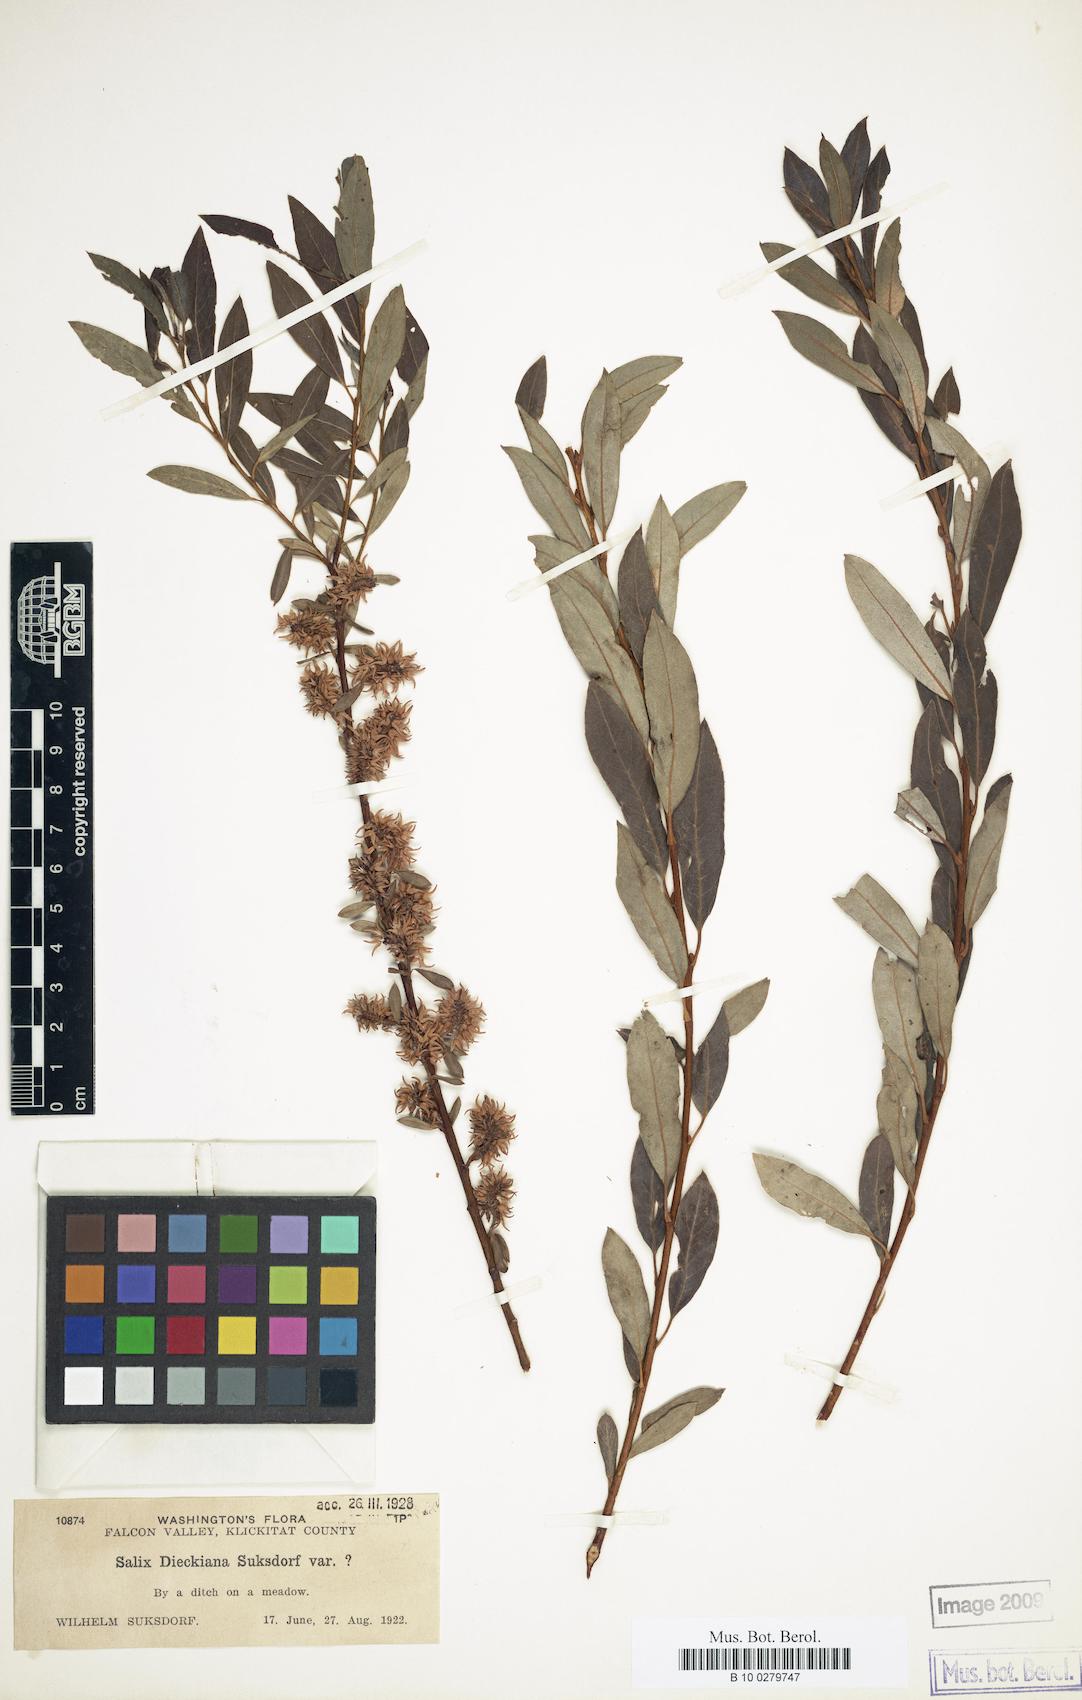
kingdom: Plantae
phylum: Tracheophyta
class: Magnoliopsida
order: Malpighiales
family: Salicaceae
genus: Salix
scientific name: Salix dieckiana
